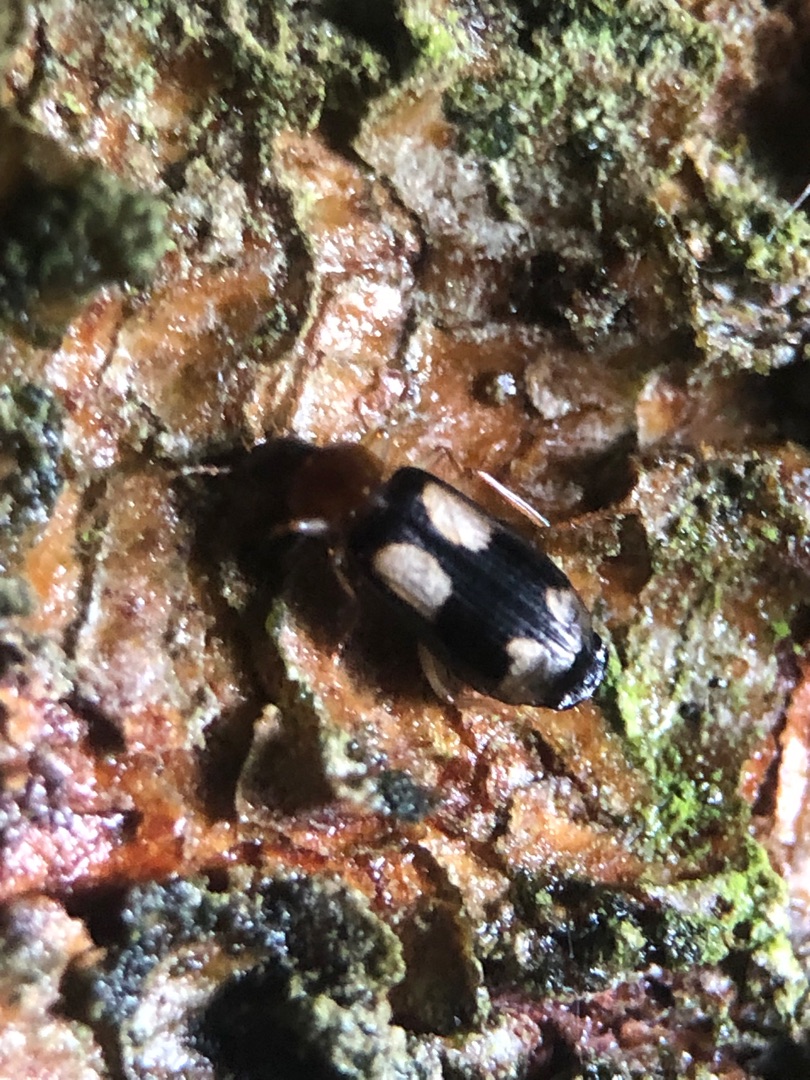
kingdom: Animalia
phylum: Arthropoda
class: Insecta
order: Coleoptera
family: Carabidae
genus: Dromius
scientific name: Dromius quadrimaculatus
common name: Fireplettet barkløber
